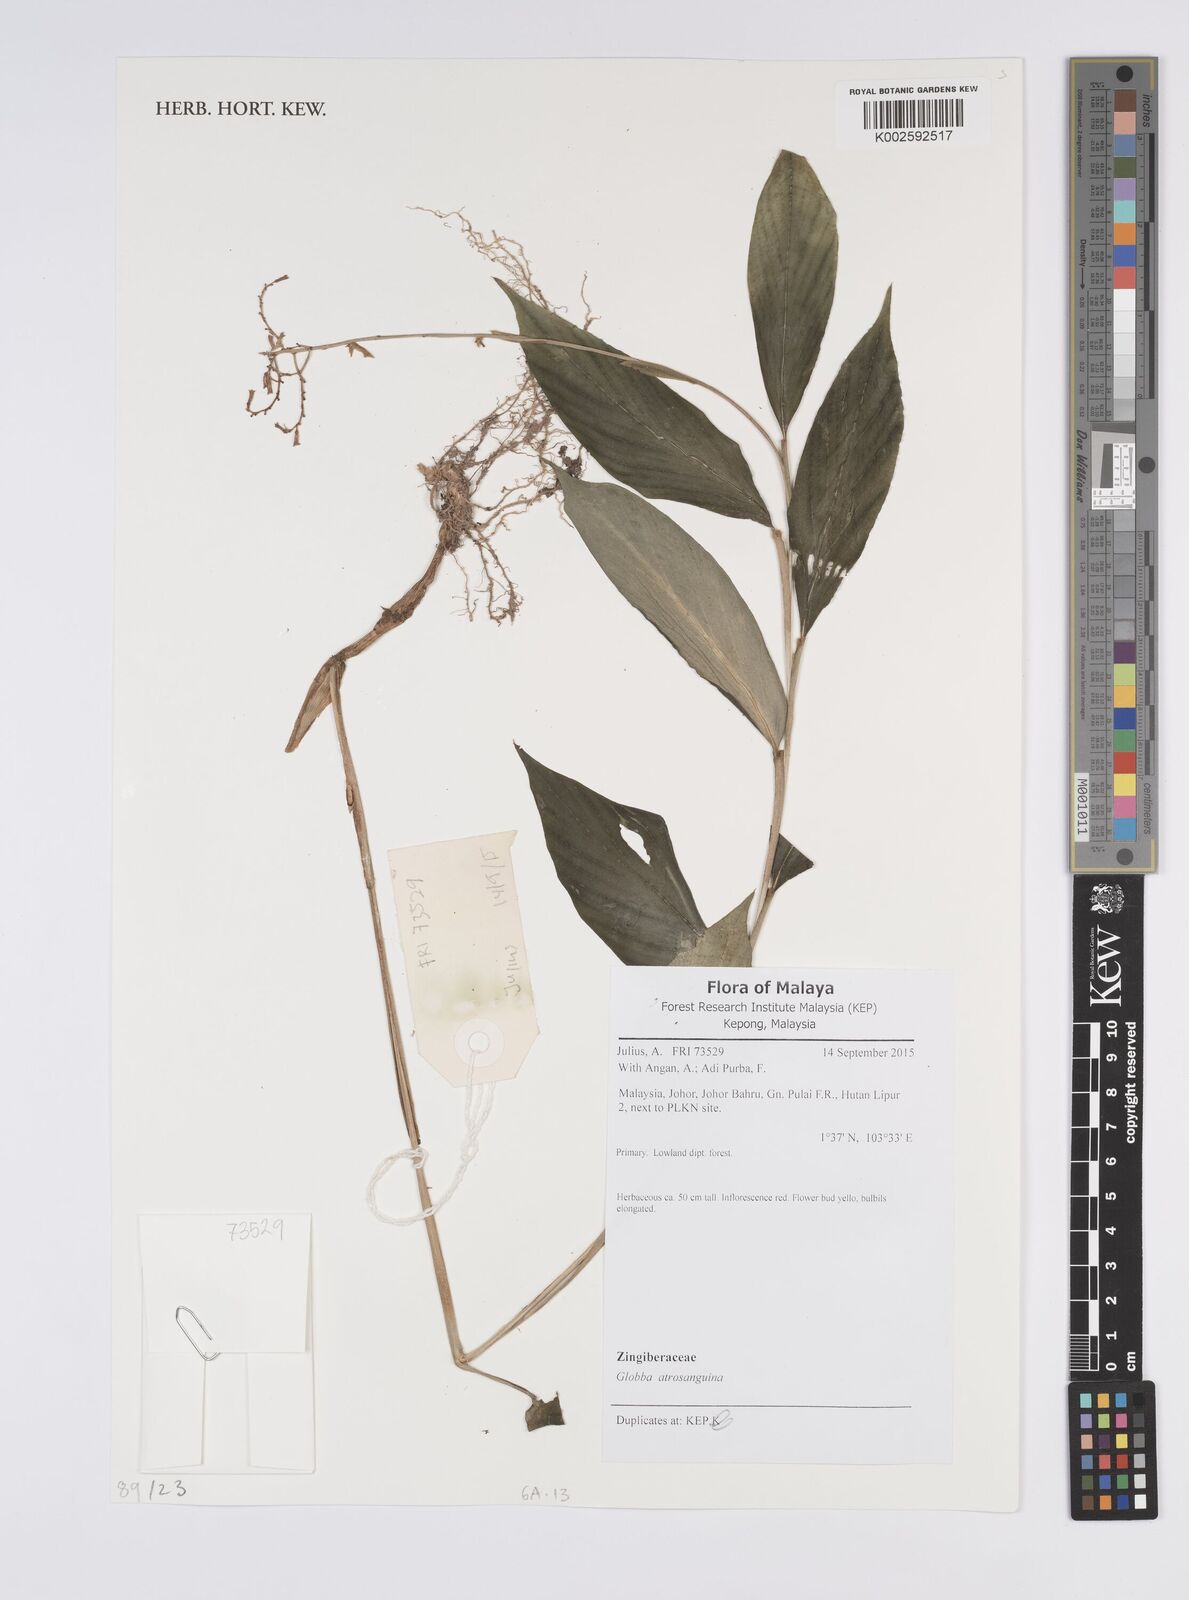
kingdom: Plantae
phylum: Tracheophyta
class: Liliopsida
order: Zingiberales
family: Zingiberaceae
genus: Globba
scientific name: Globba atrosanguinea
